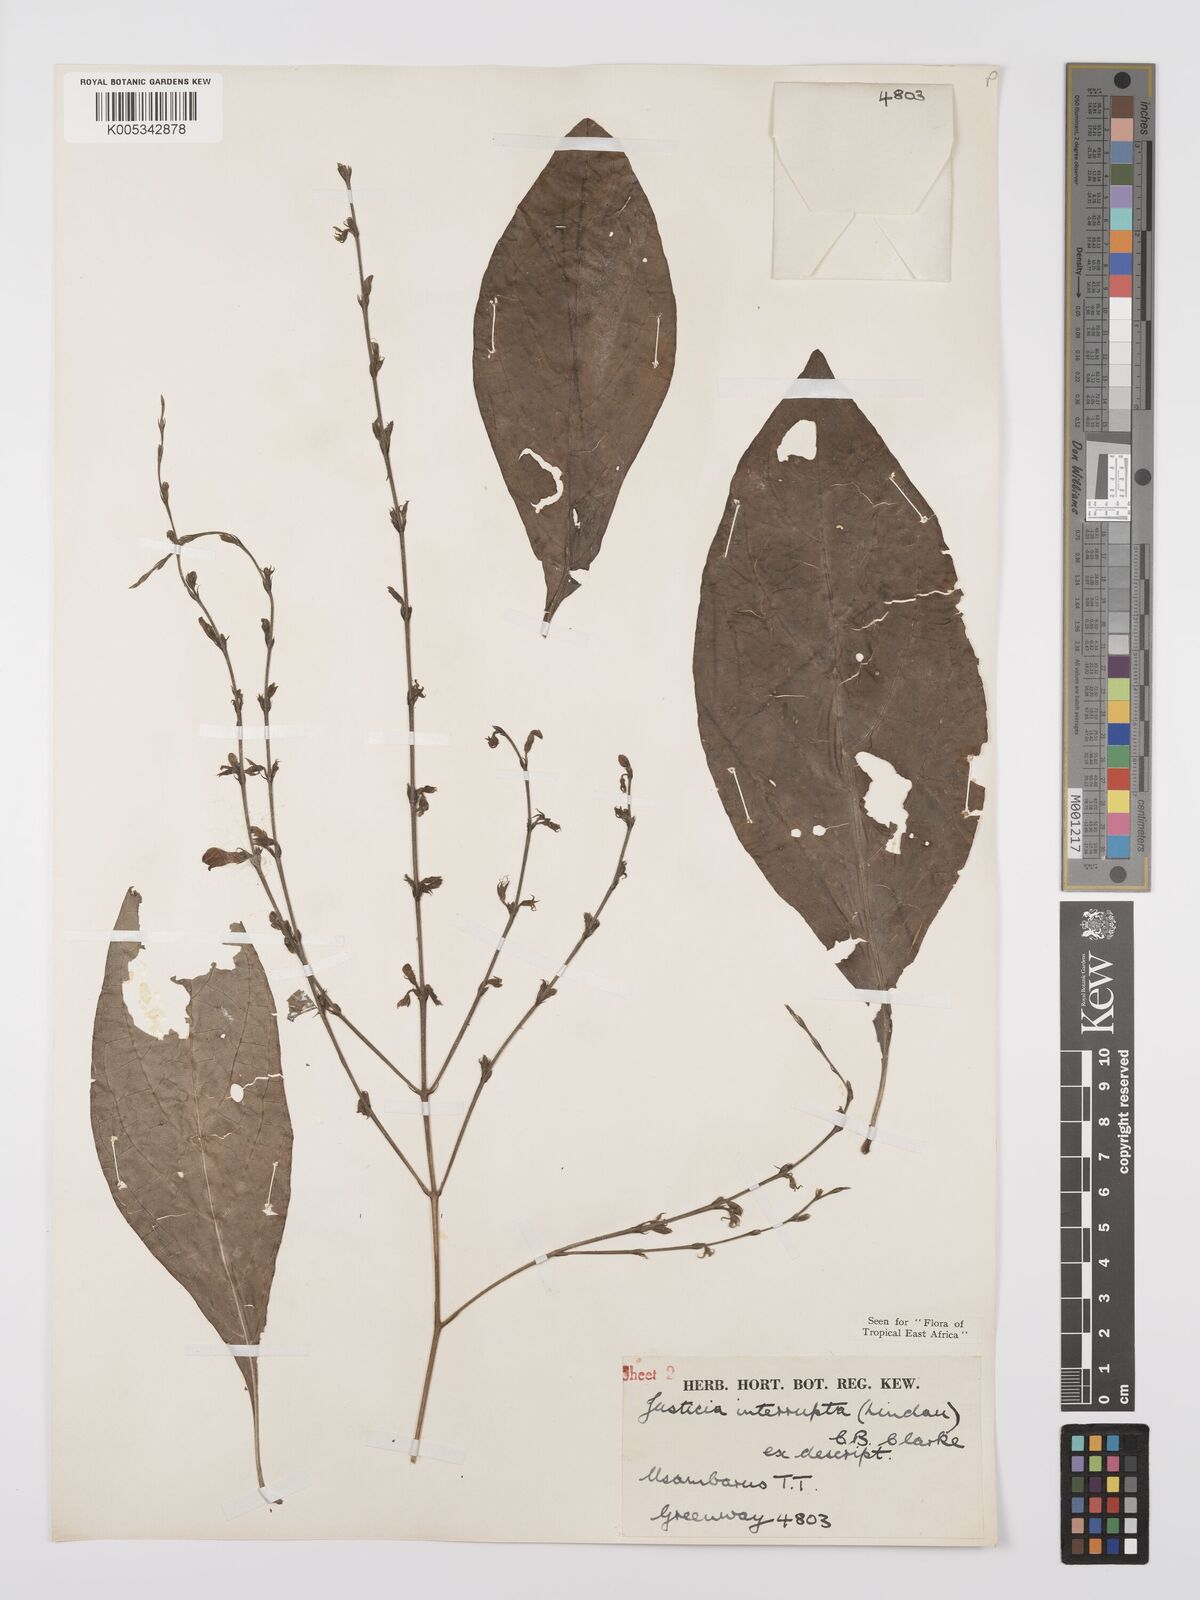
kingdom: Plantae
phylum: Tracheophyta
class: Magnoliopsida
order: Lamiales
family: Acanthaceae
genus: Justicia
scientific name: Justicia plectranthoides
